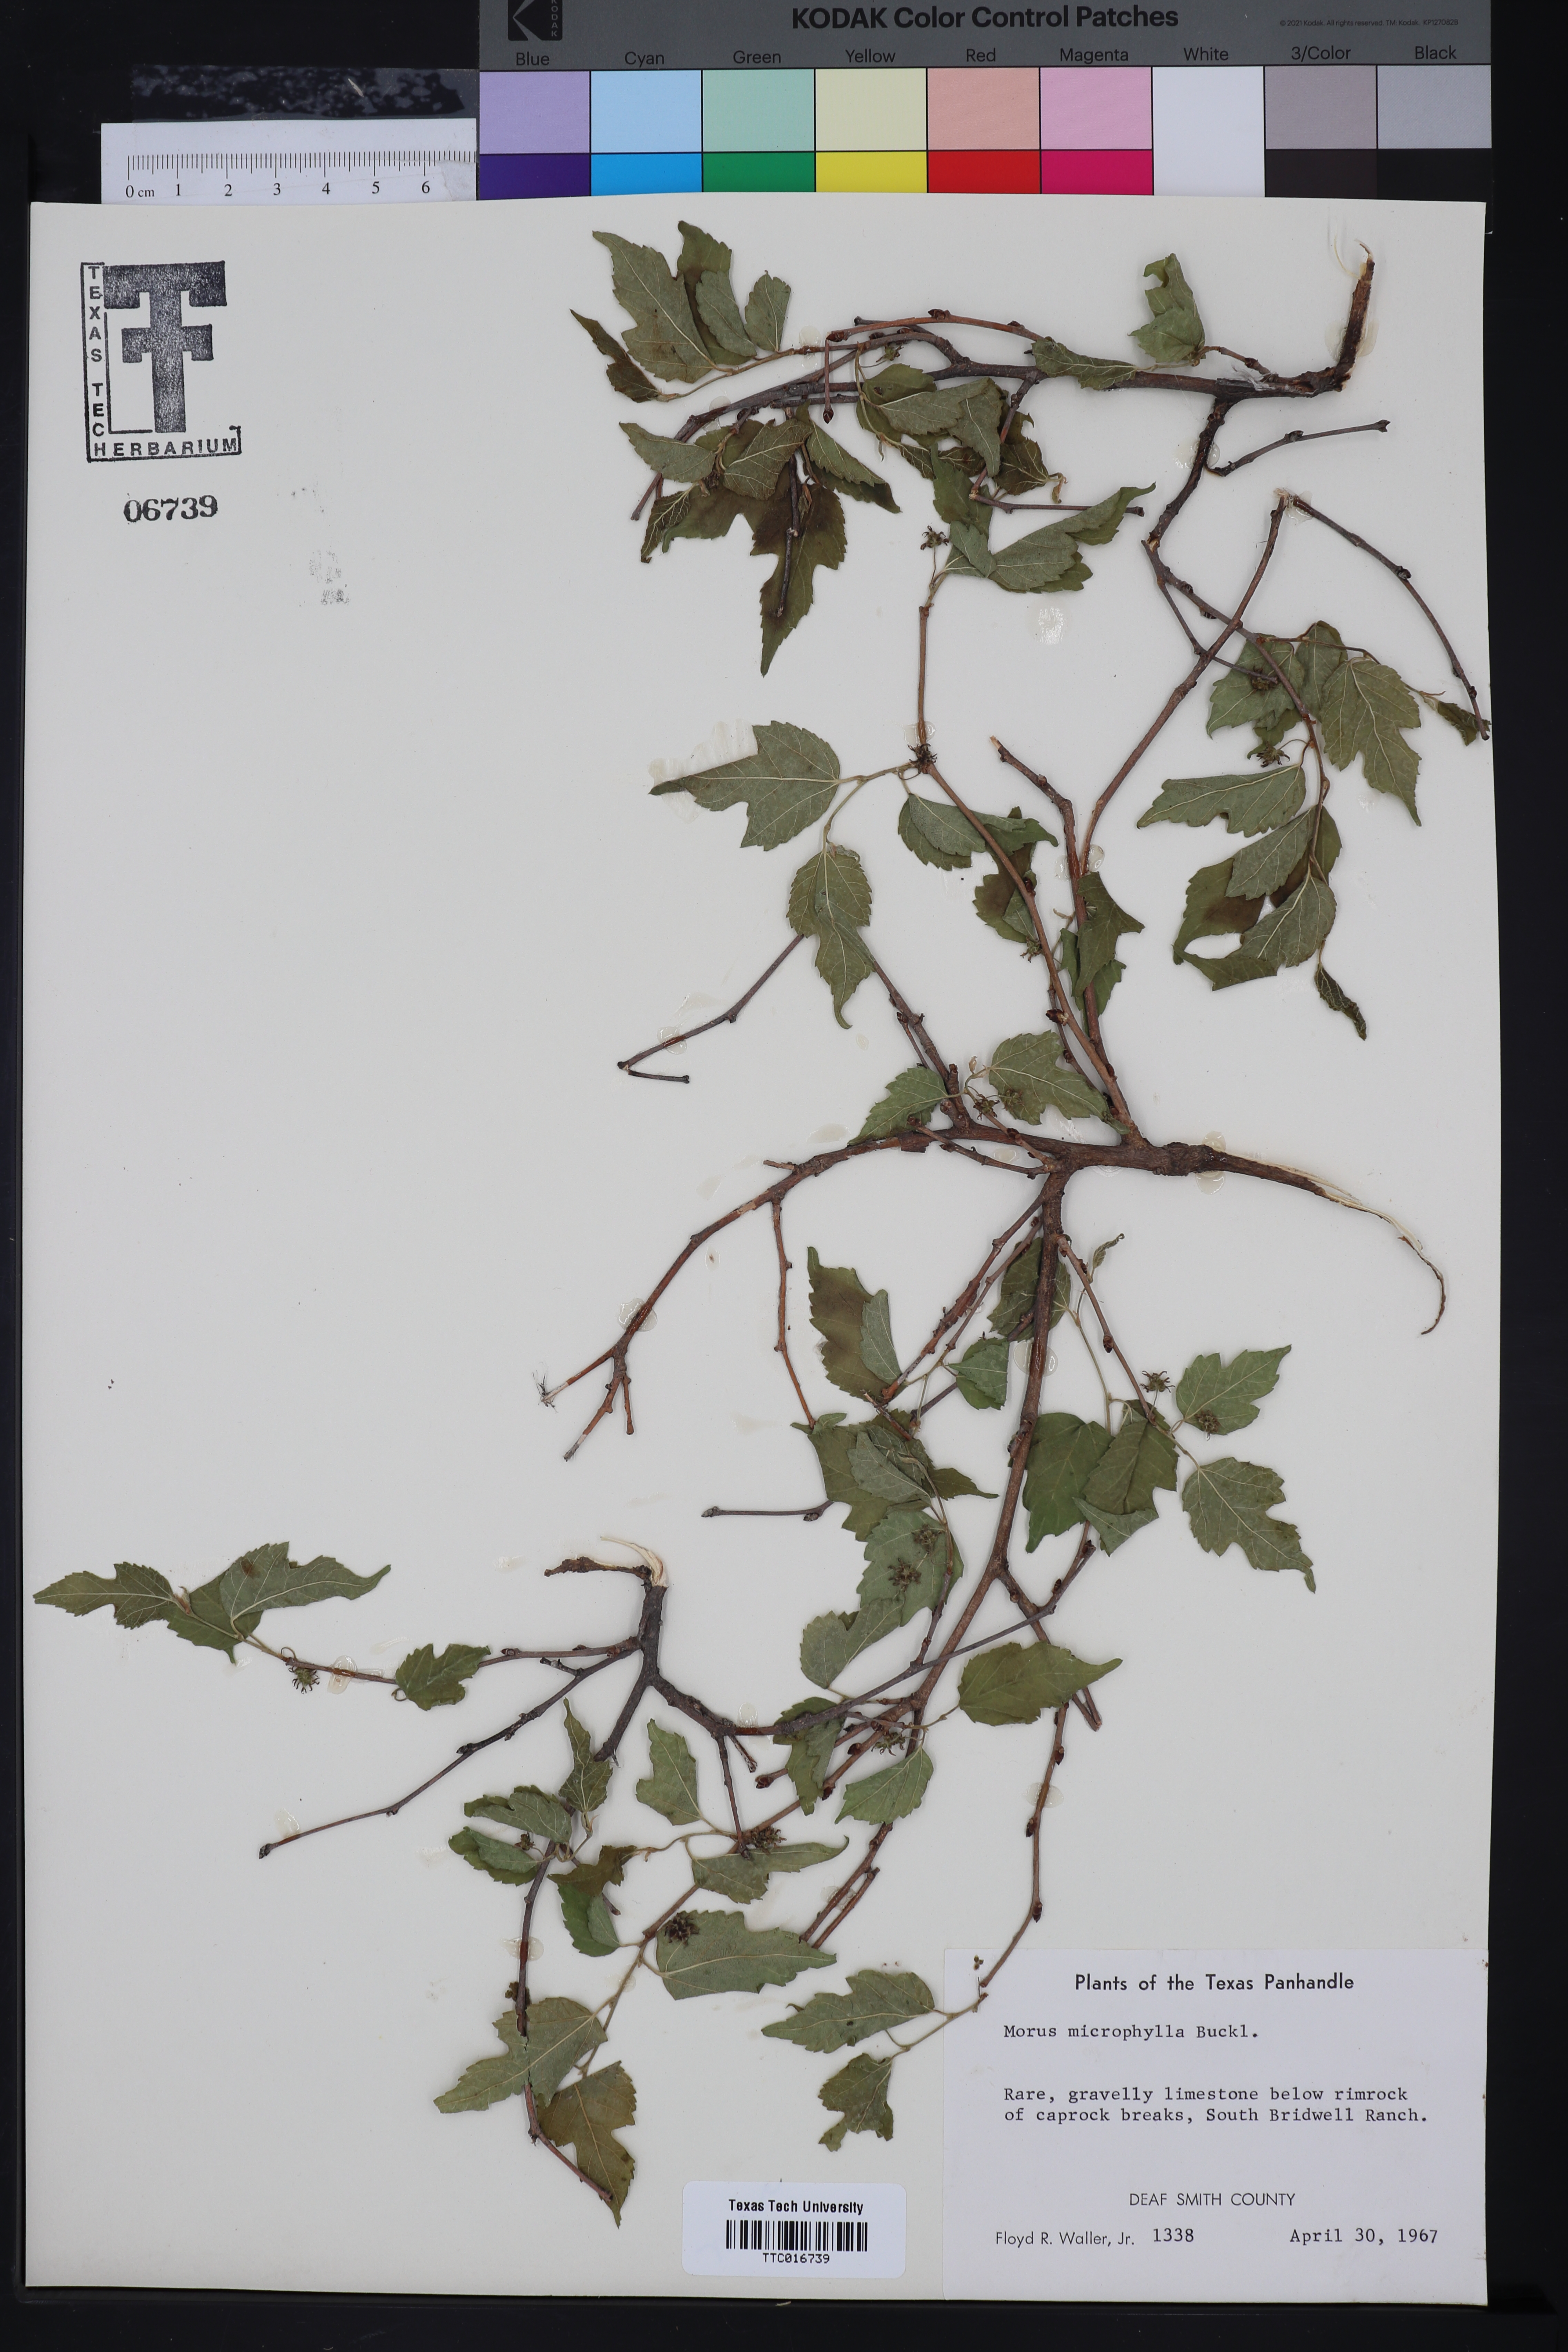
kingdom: Plantae
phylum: Tracheophyta
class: Magnoliopsida
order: Rosales
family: Moraceae
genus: Morus
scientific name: Morus microphylla
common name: Mexican mulberry
